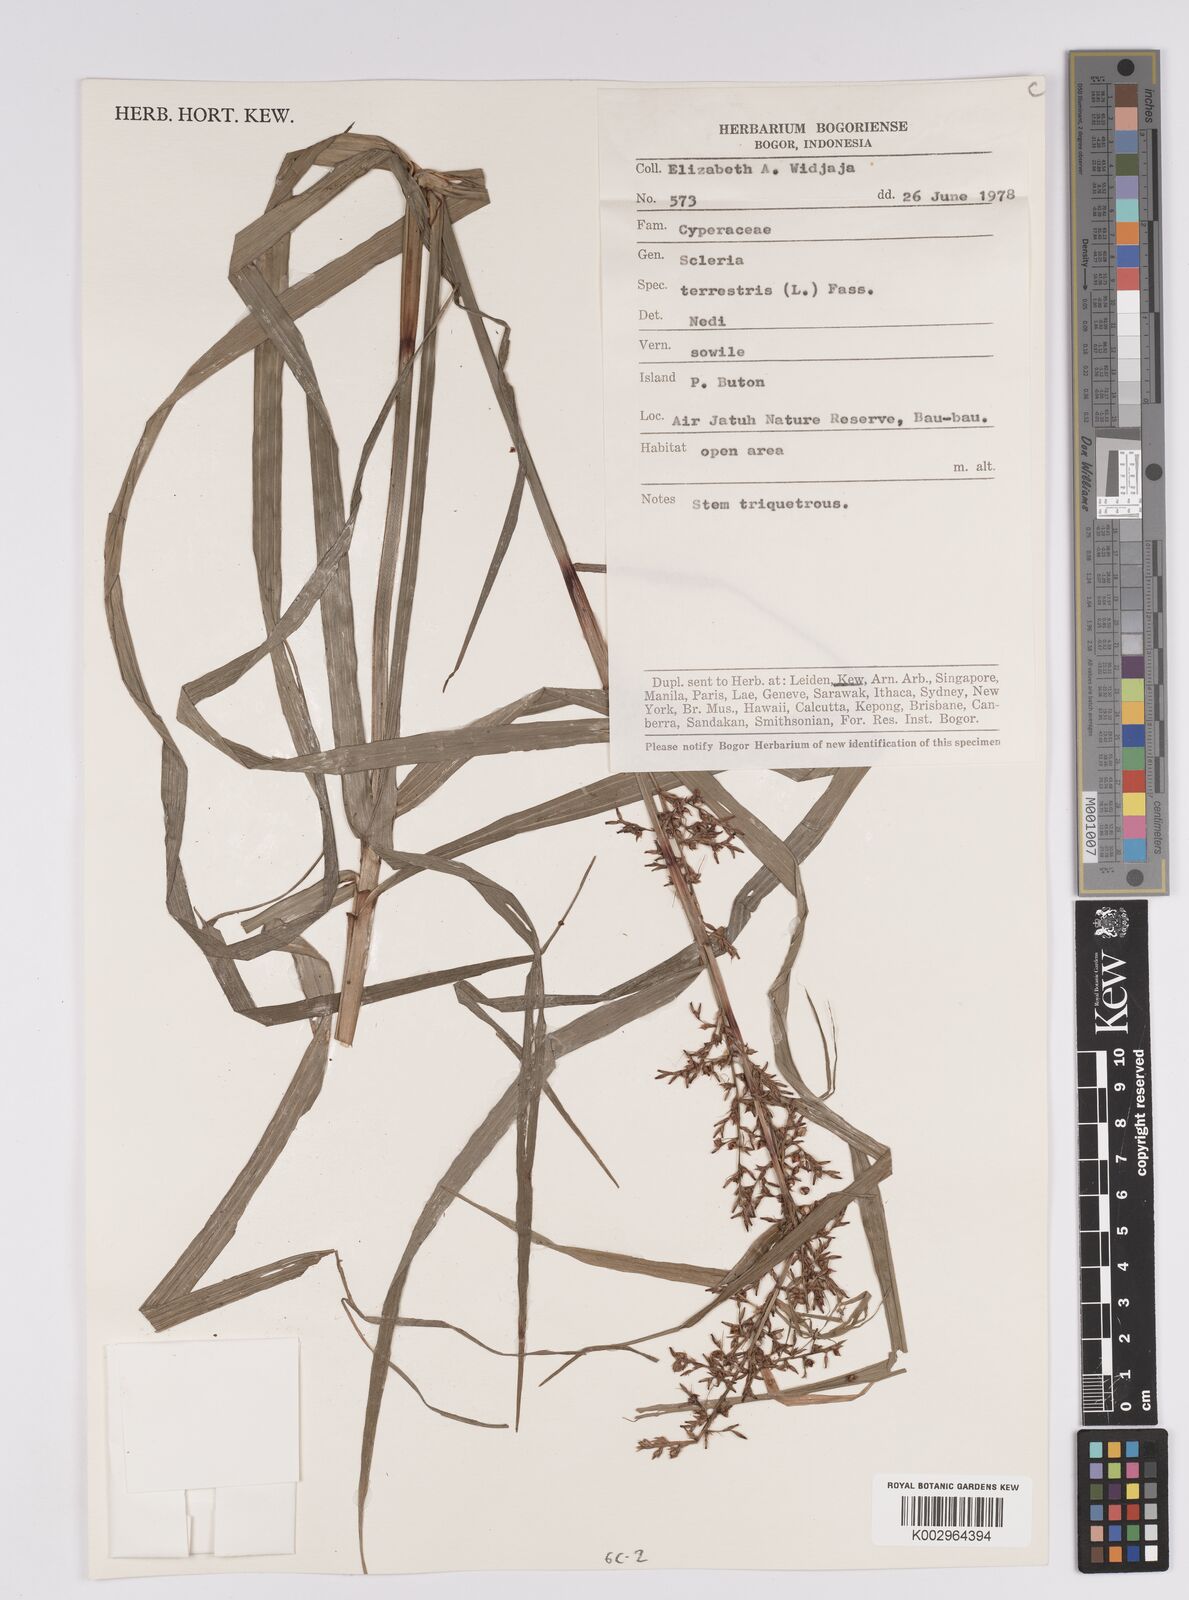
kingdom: Plantae
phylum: Tracheophyta
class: Liliopsida
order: Poales
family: Cyperaceae
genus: Scleria
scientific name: Scleria terrestris
